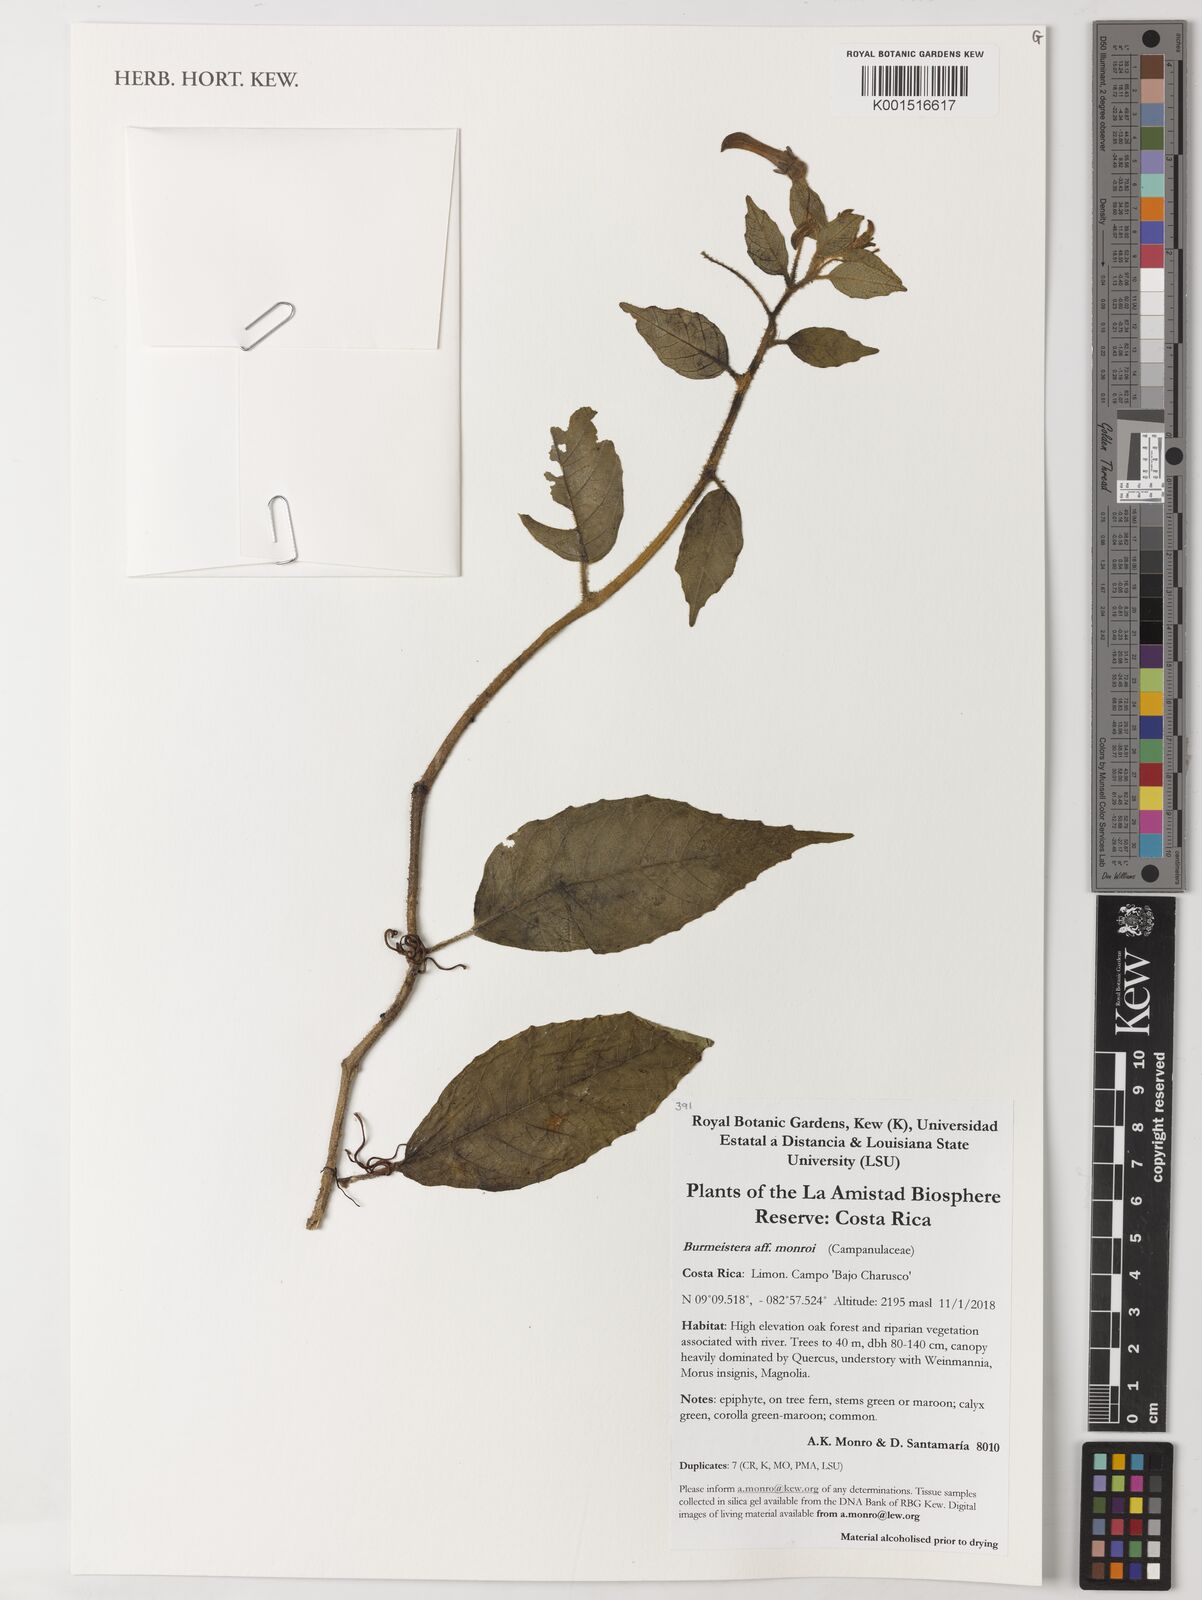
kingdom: Plantae
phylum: Tracheophyta
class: Magnoliopsida
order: Asterales
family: Campanulaceae
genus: Burmeistera
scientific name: Burmeistera monroi
